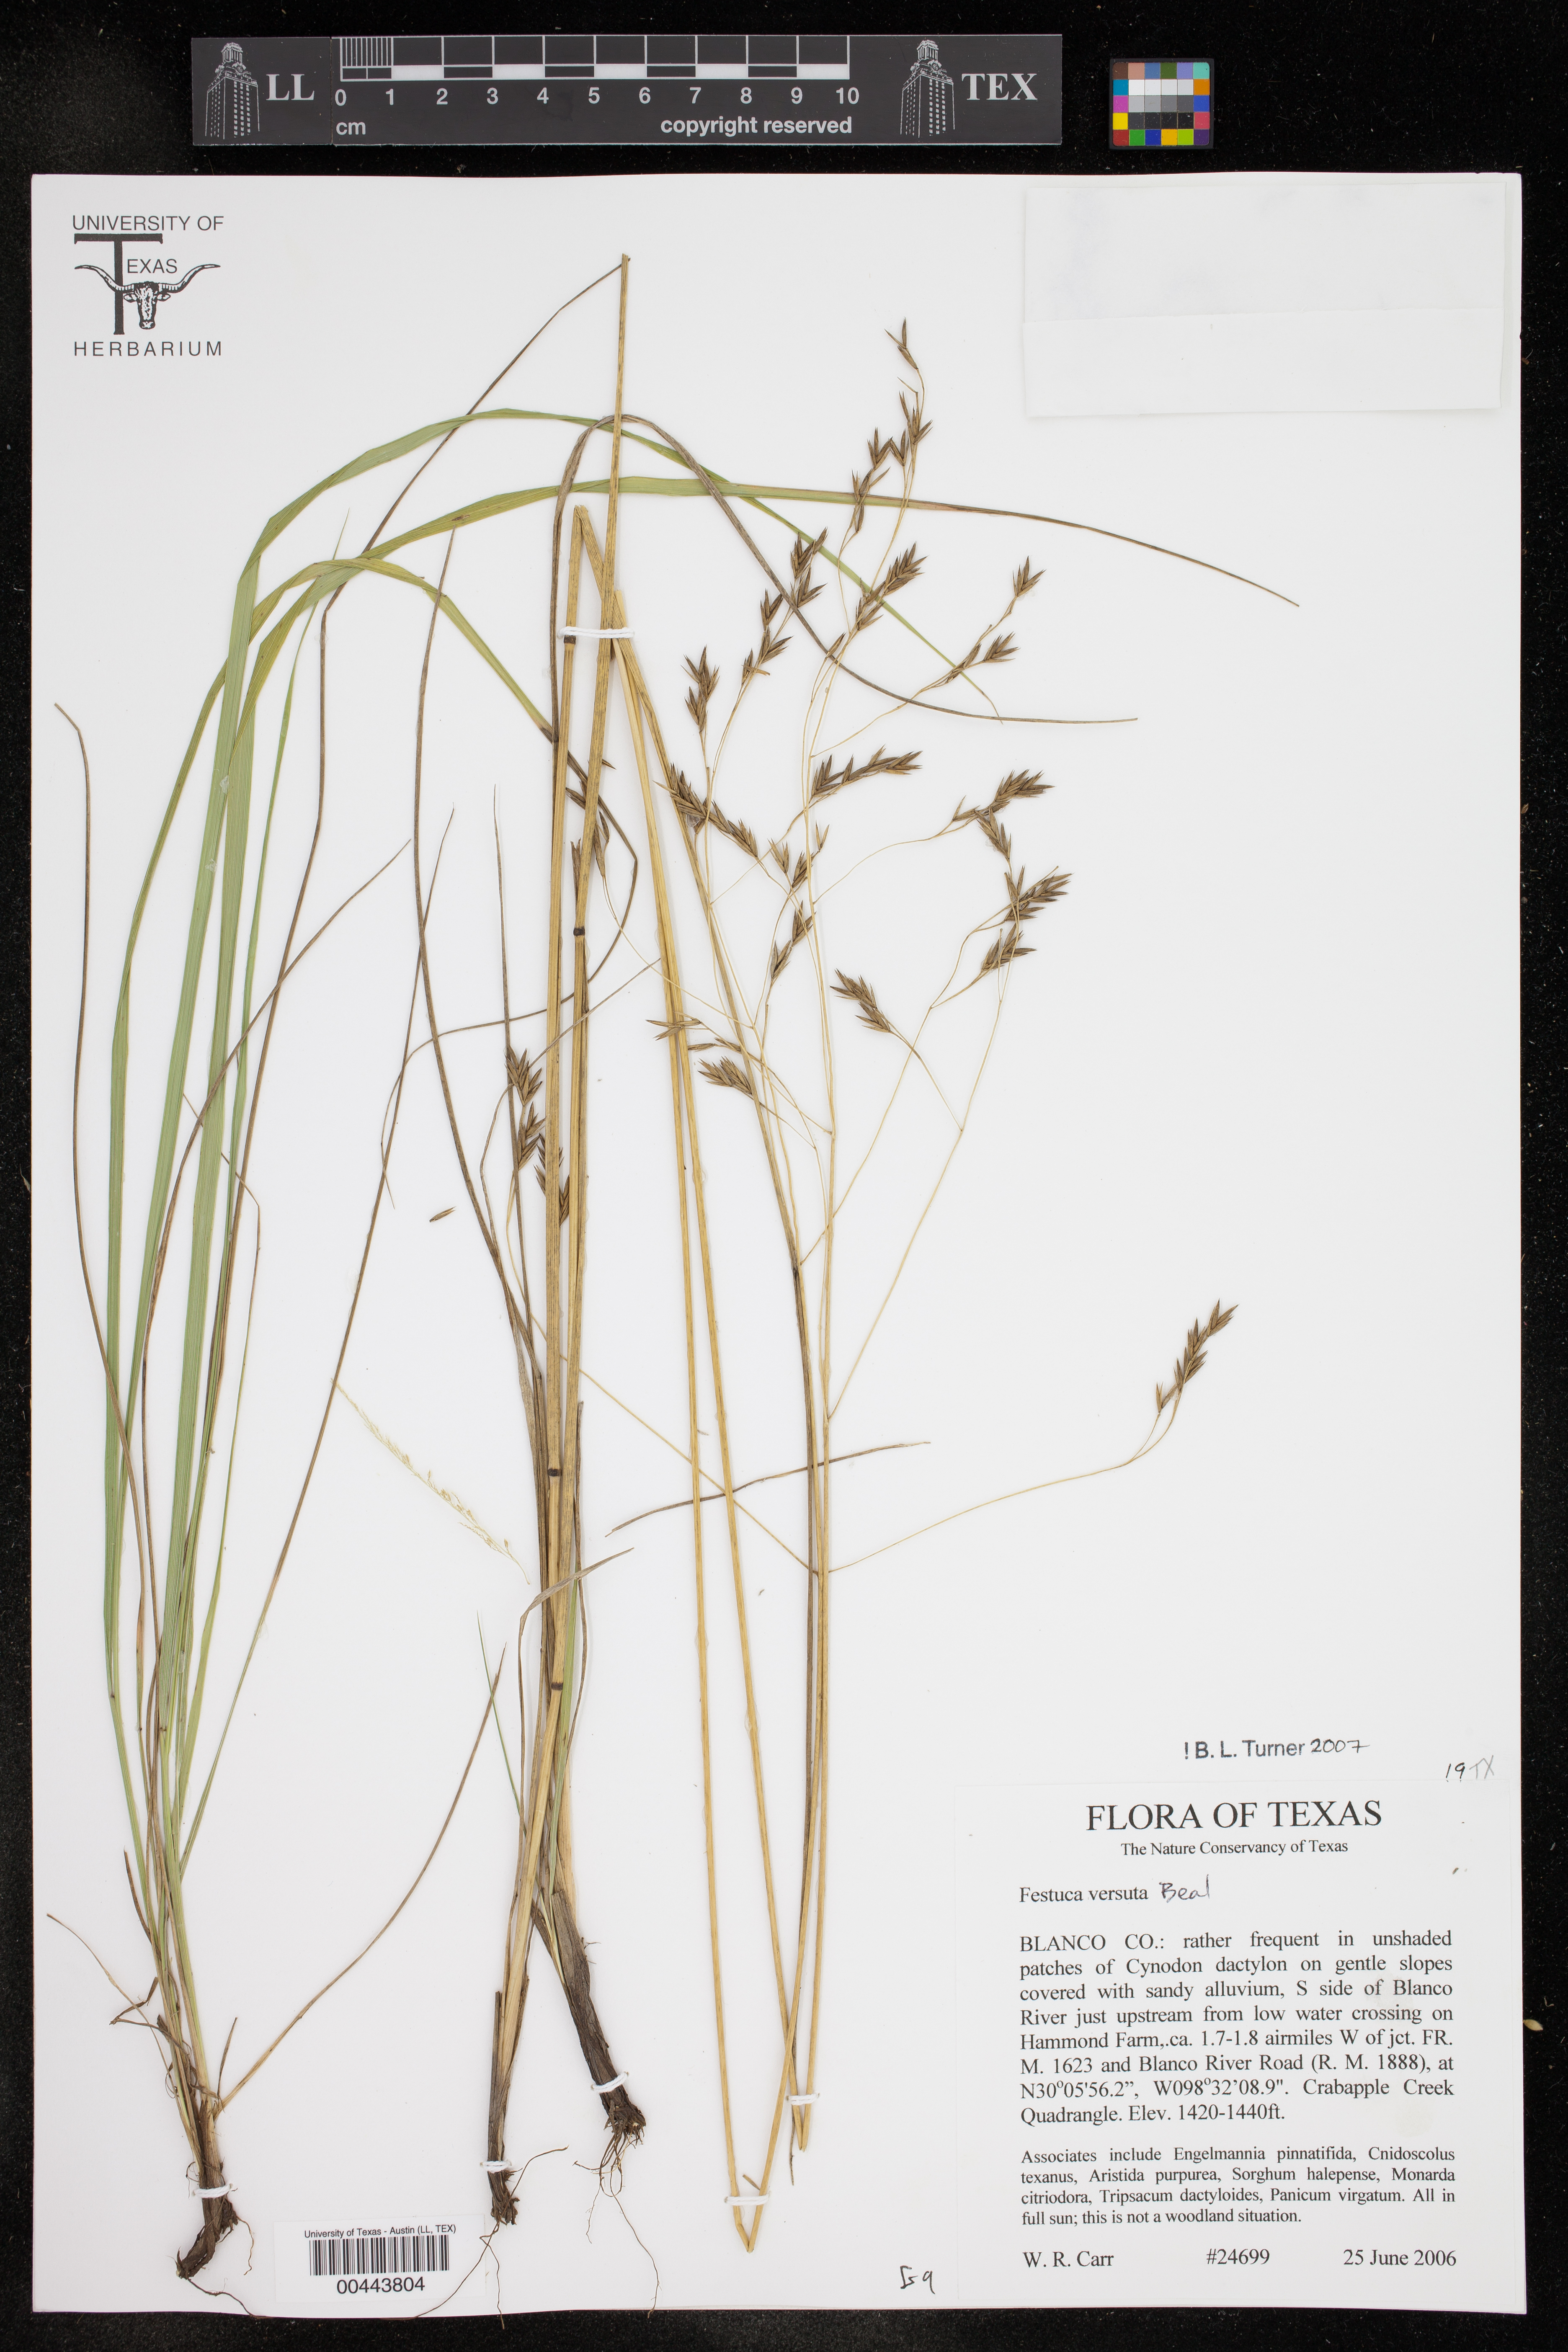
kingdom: Plantae
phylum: Tracheophyta
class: Liliopsida
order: Poales
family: Poaceae
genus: Festuca
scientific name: Festuca versuta
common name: Texas fescue
